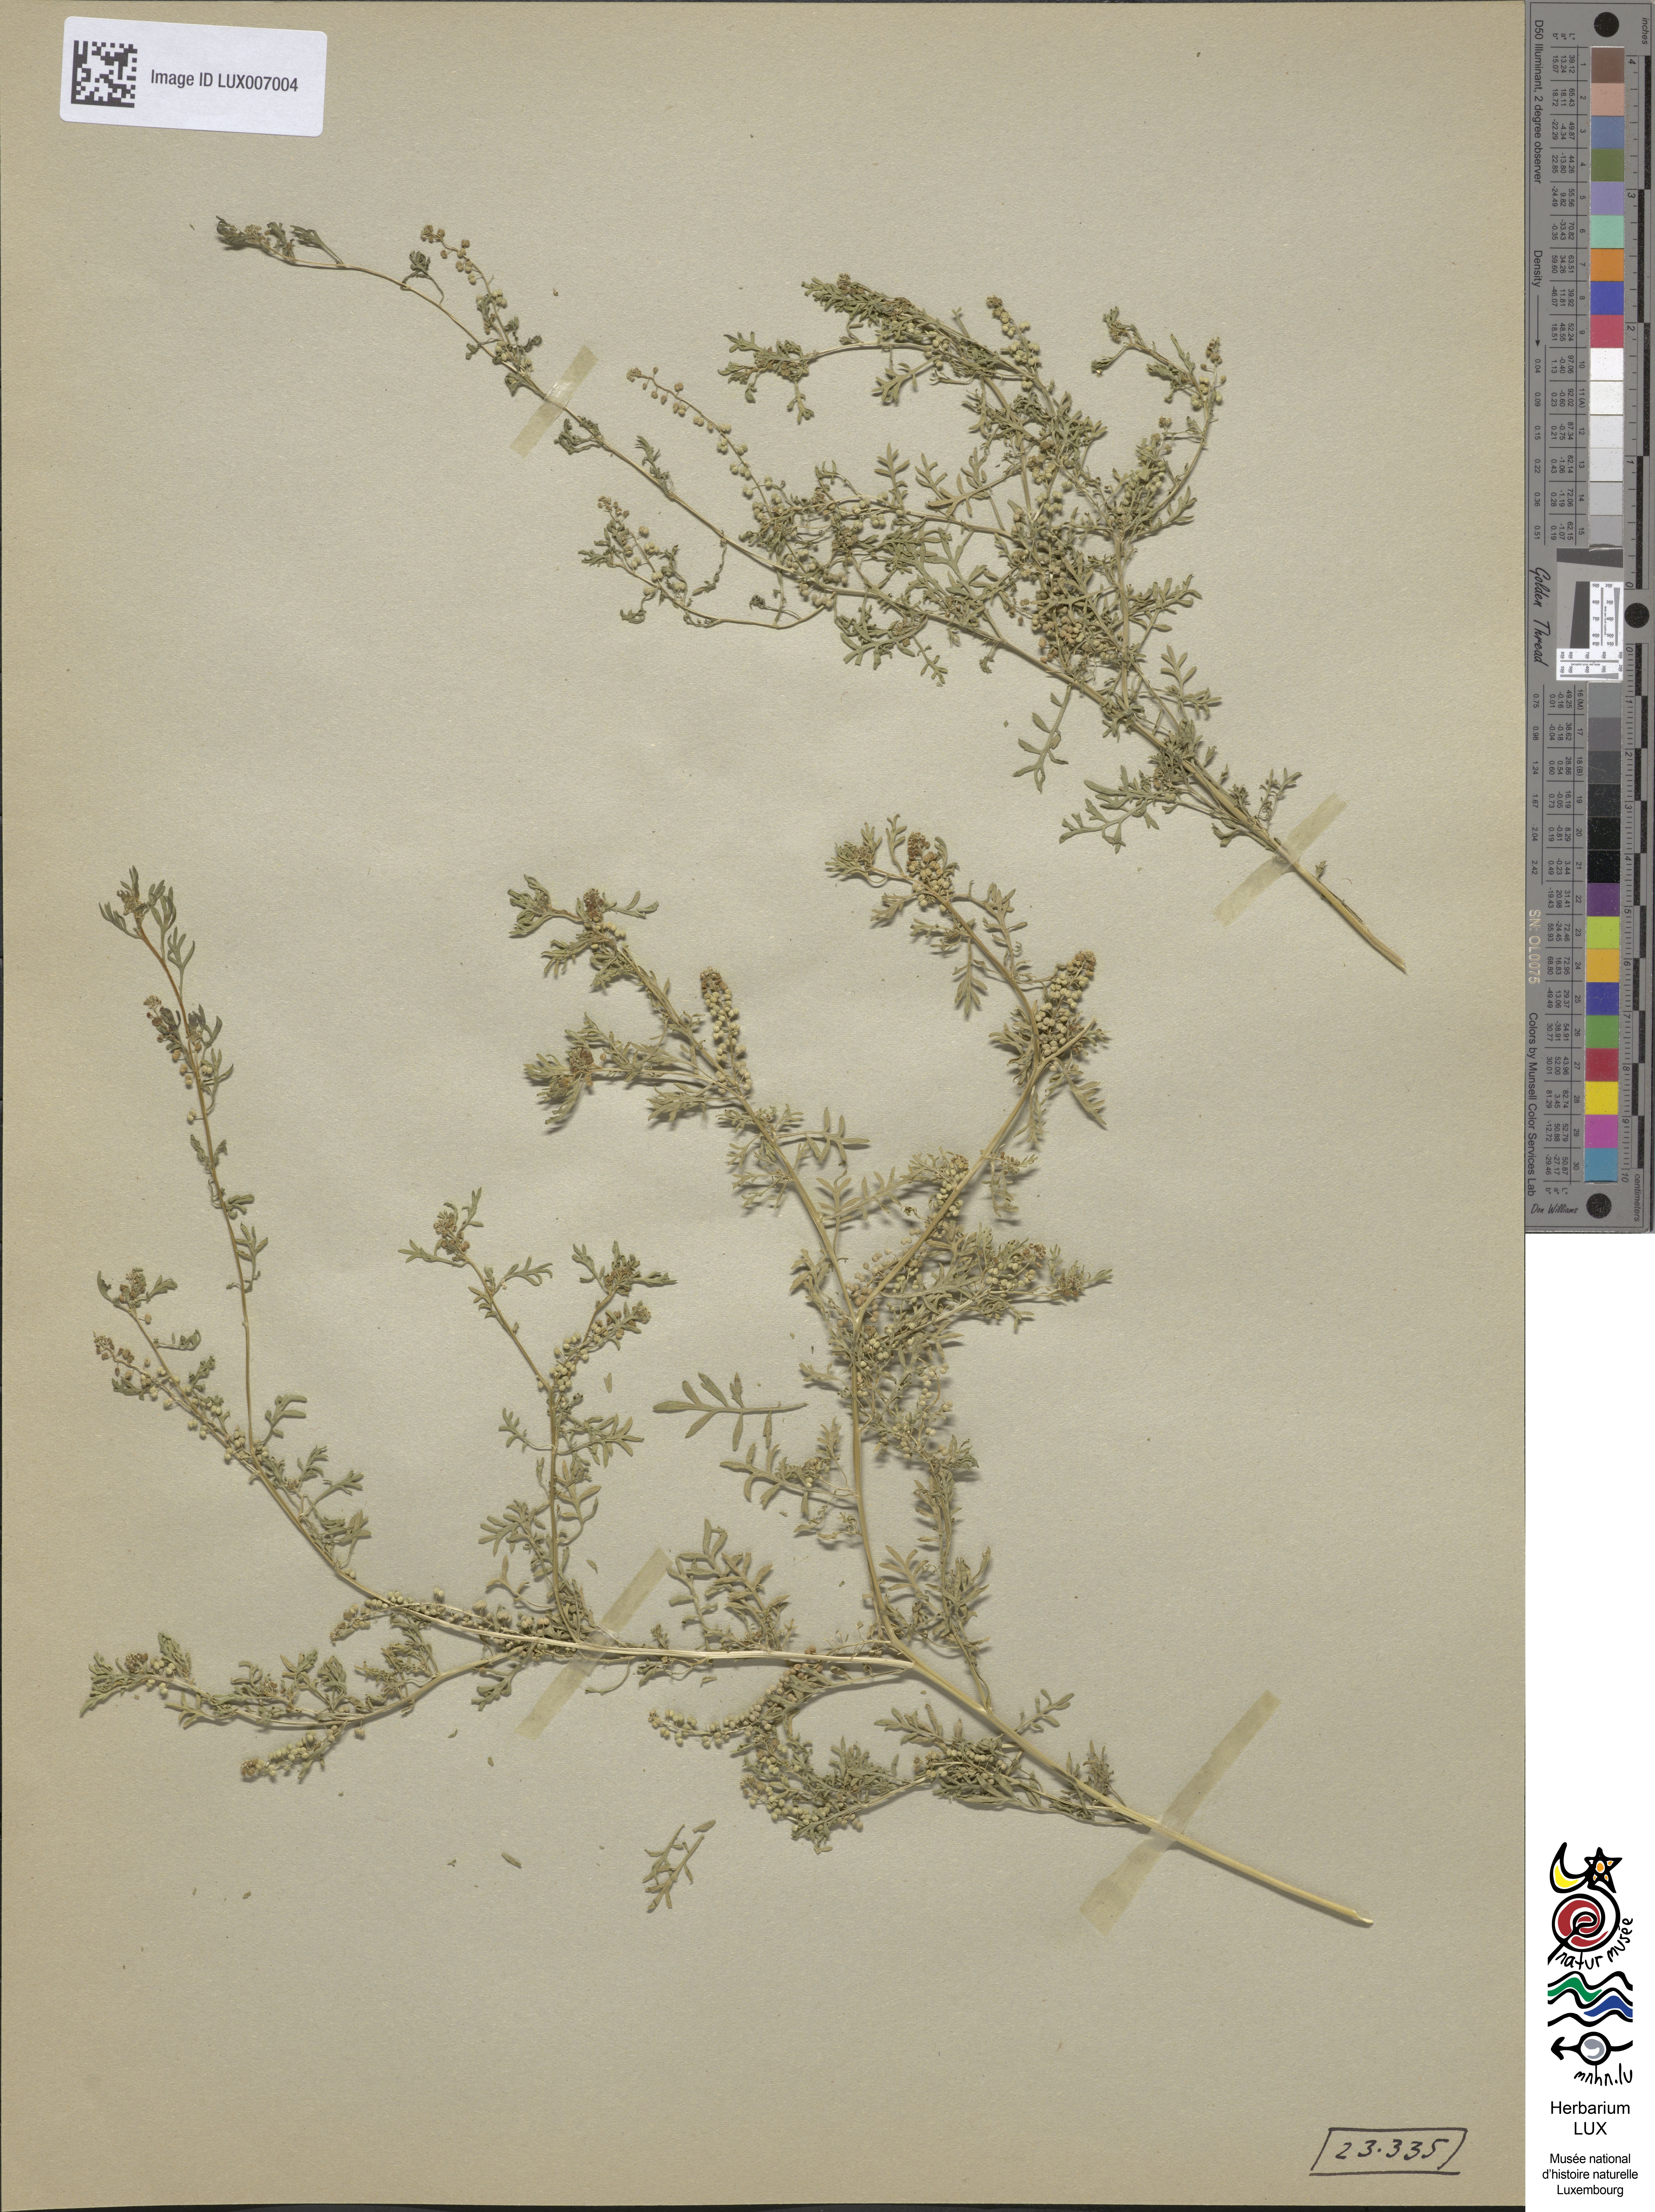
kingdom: Plantae
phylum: Tracheophyta
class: Magnoliopsida
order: Brassicales
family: Brassicaceae
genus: Lepidium
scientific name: Lepidium didymum
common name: Lesser swinecress
